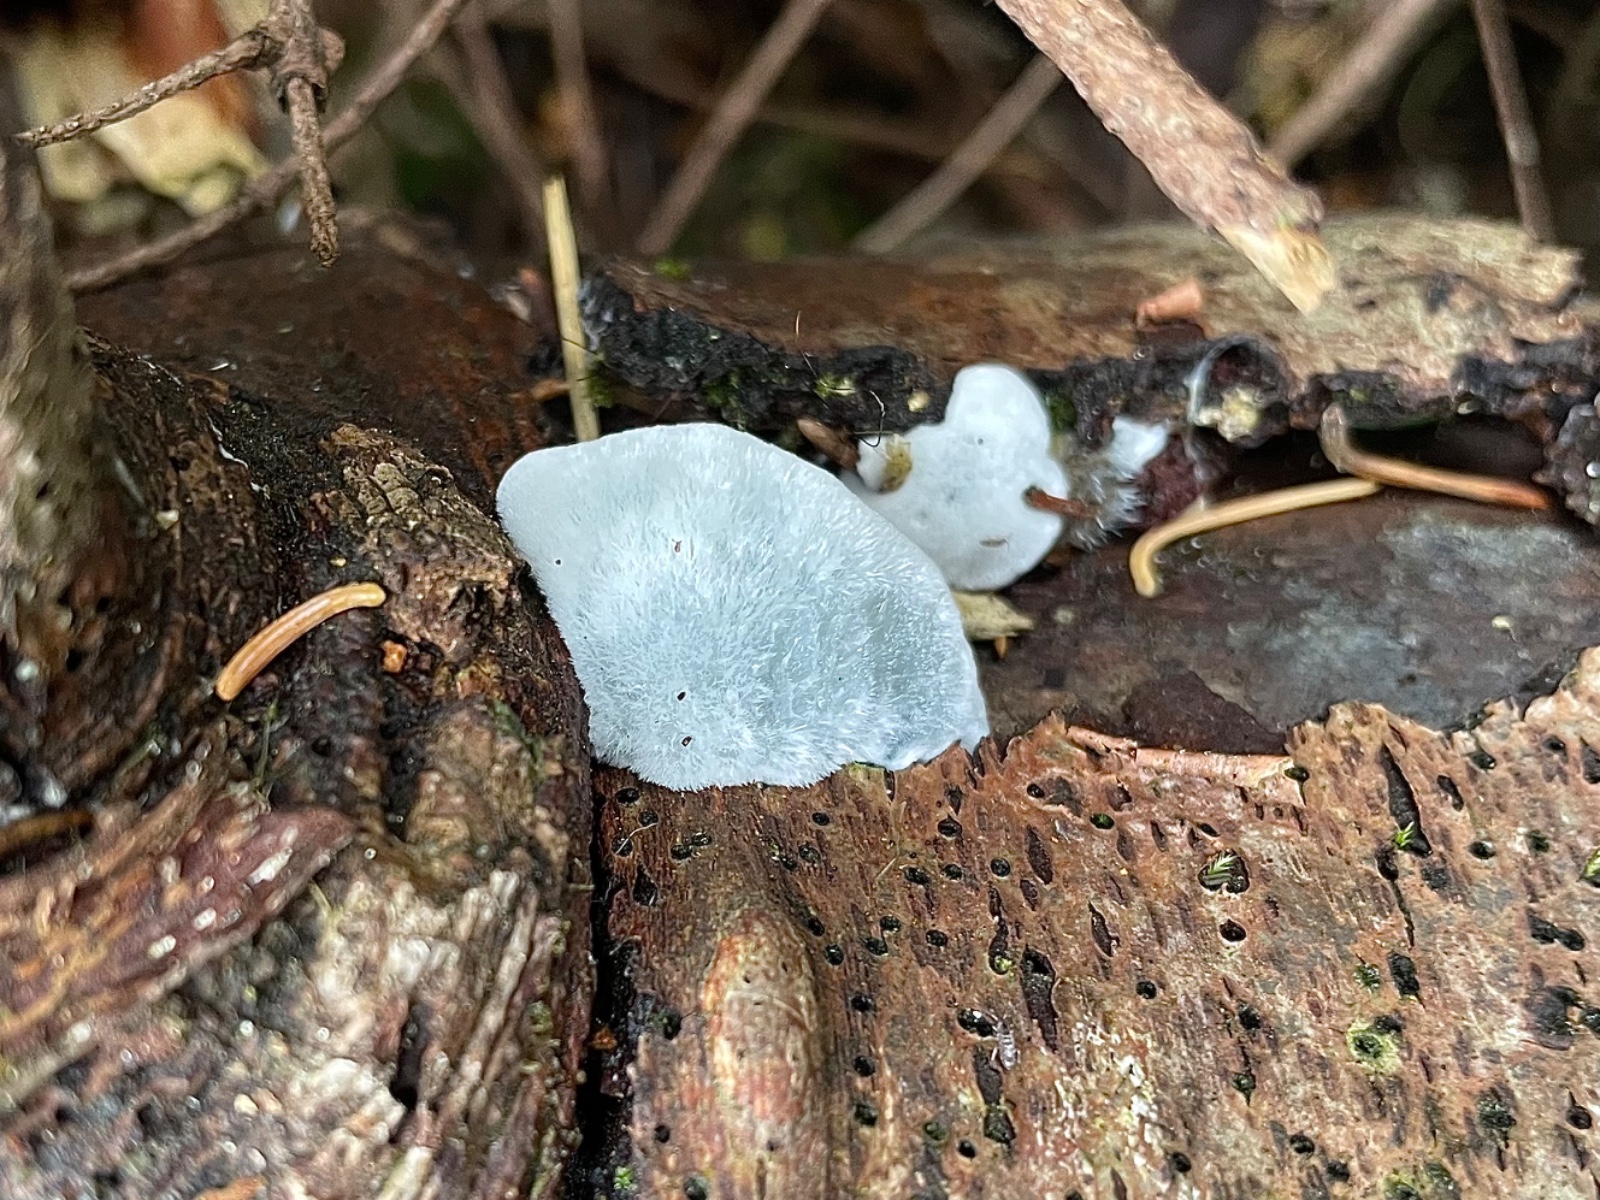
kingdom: Fungi
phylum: Basidiomycota
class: Agaricomycetes
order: Polyporales
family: Polyporaceae
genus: Cyanosporus
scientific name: Cyanosporus caesius
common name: blålig kødporesvamp
